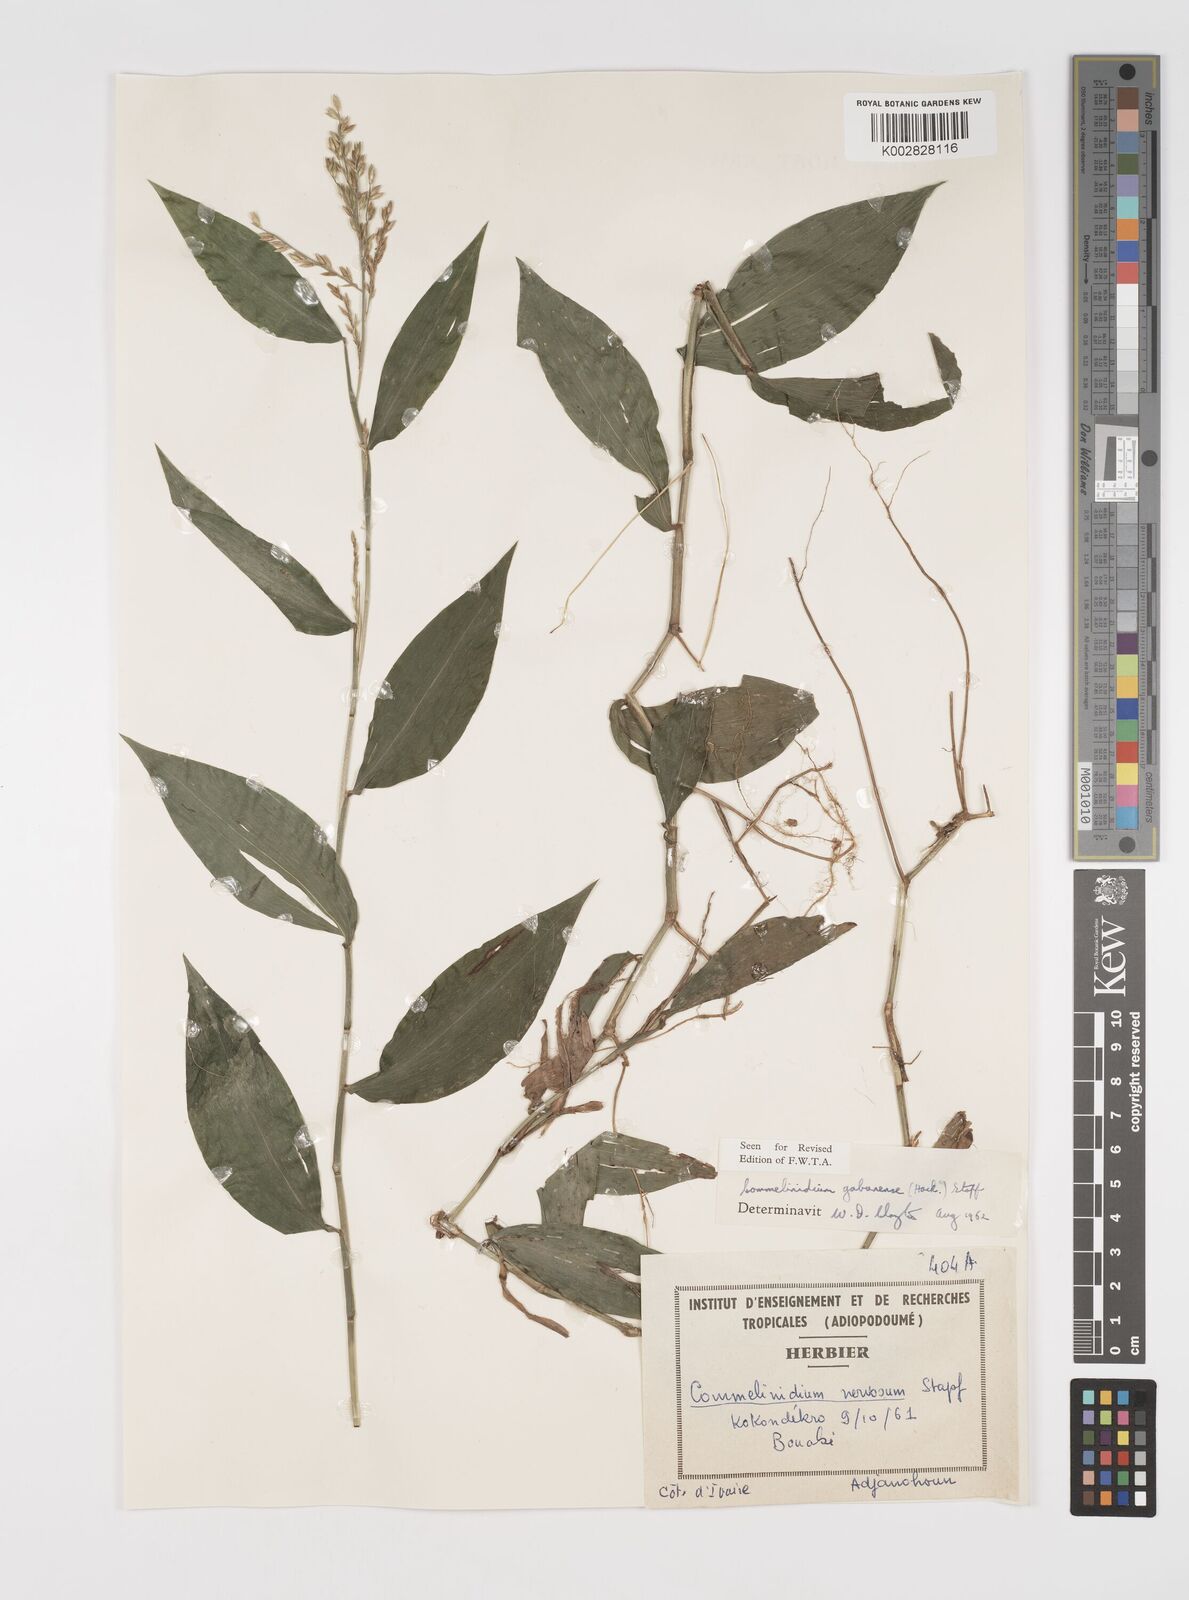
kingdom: Plantae
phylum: Tracheophyta
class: Liliopsida
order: Poales
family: Poaceae
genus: Acroceras
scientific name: Acroceras gabunense
